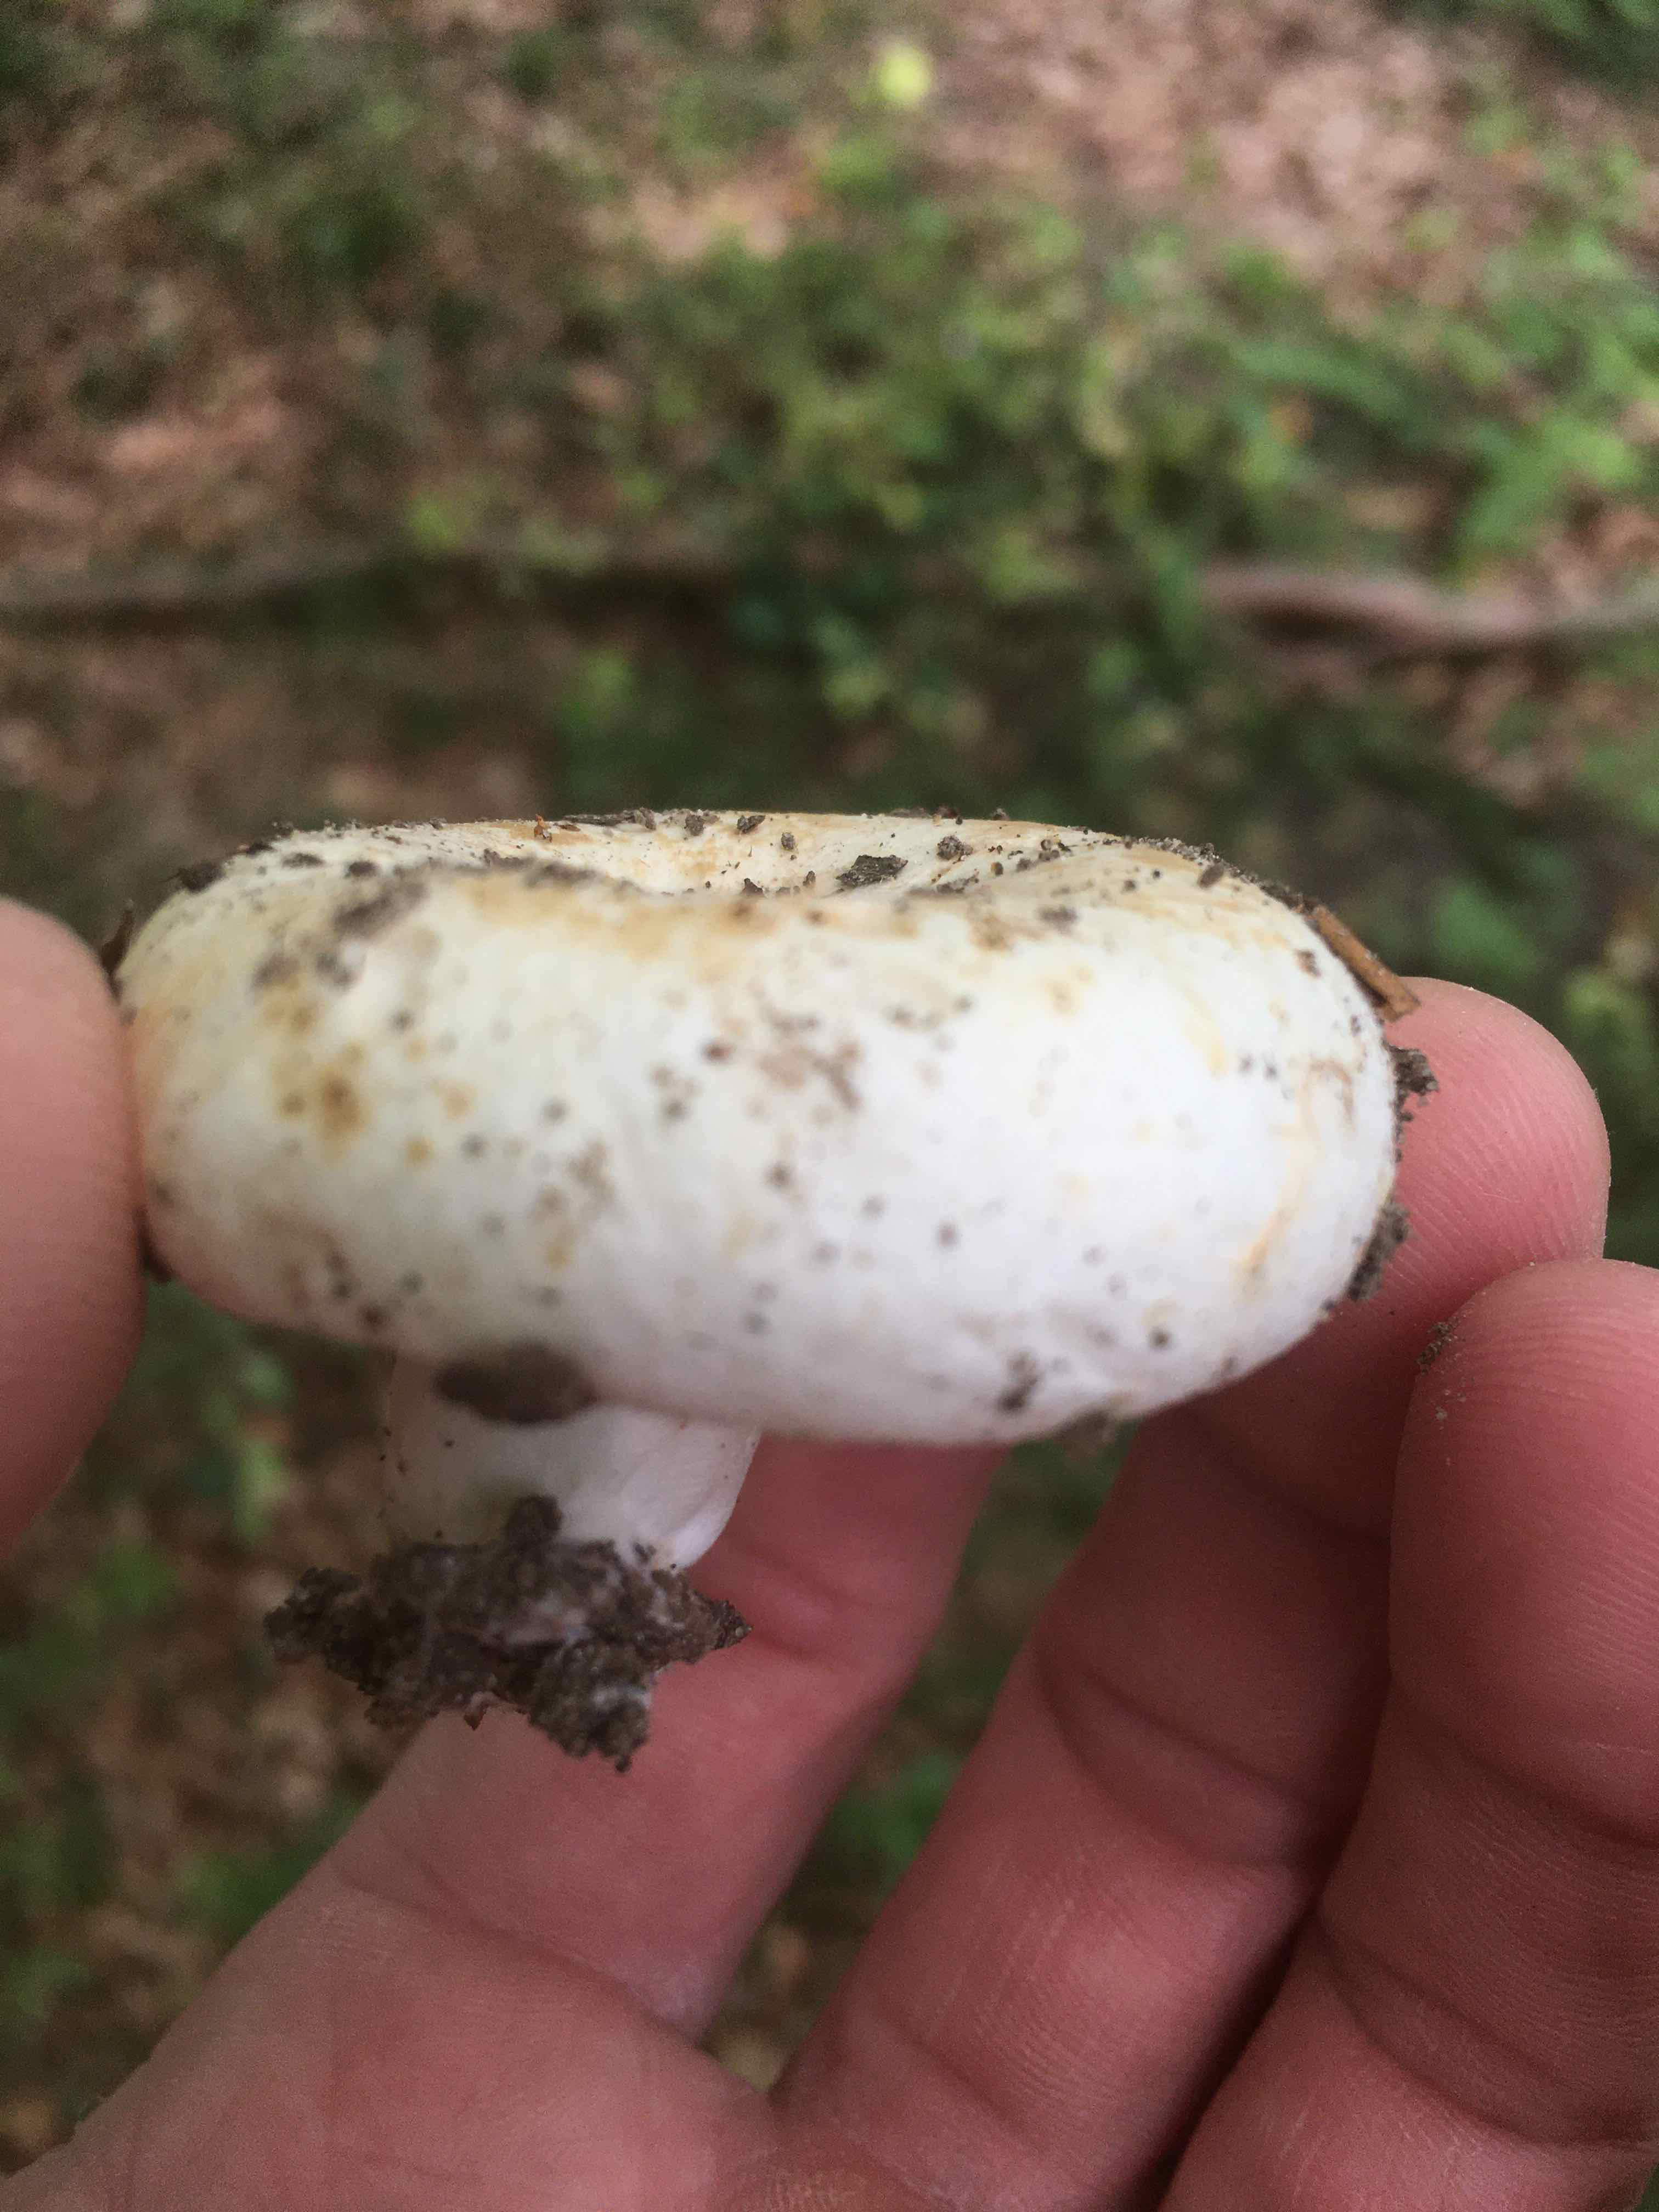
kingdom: Fungi
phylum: Basidiomycota
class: Agaricomycetes
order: Russulales
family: Russulaceae
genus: Lactifluus
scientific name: Lactifluus
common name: mælkehat
